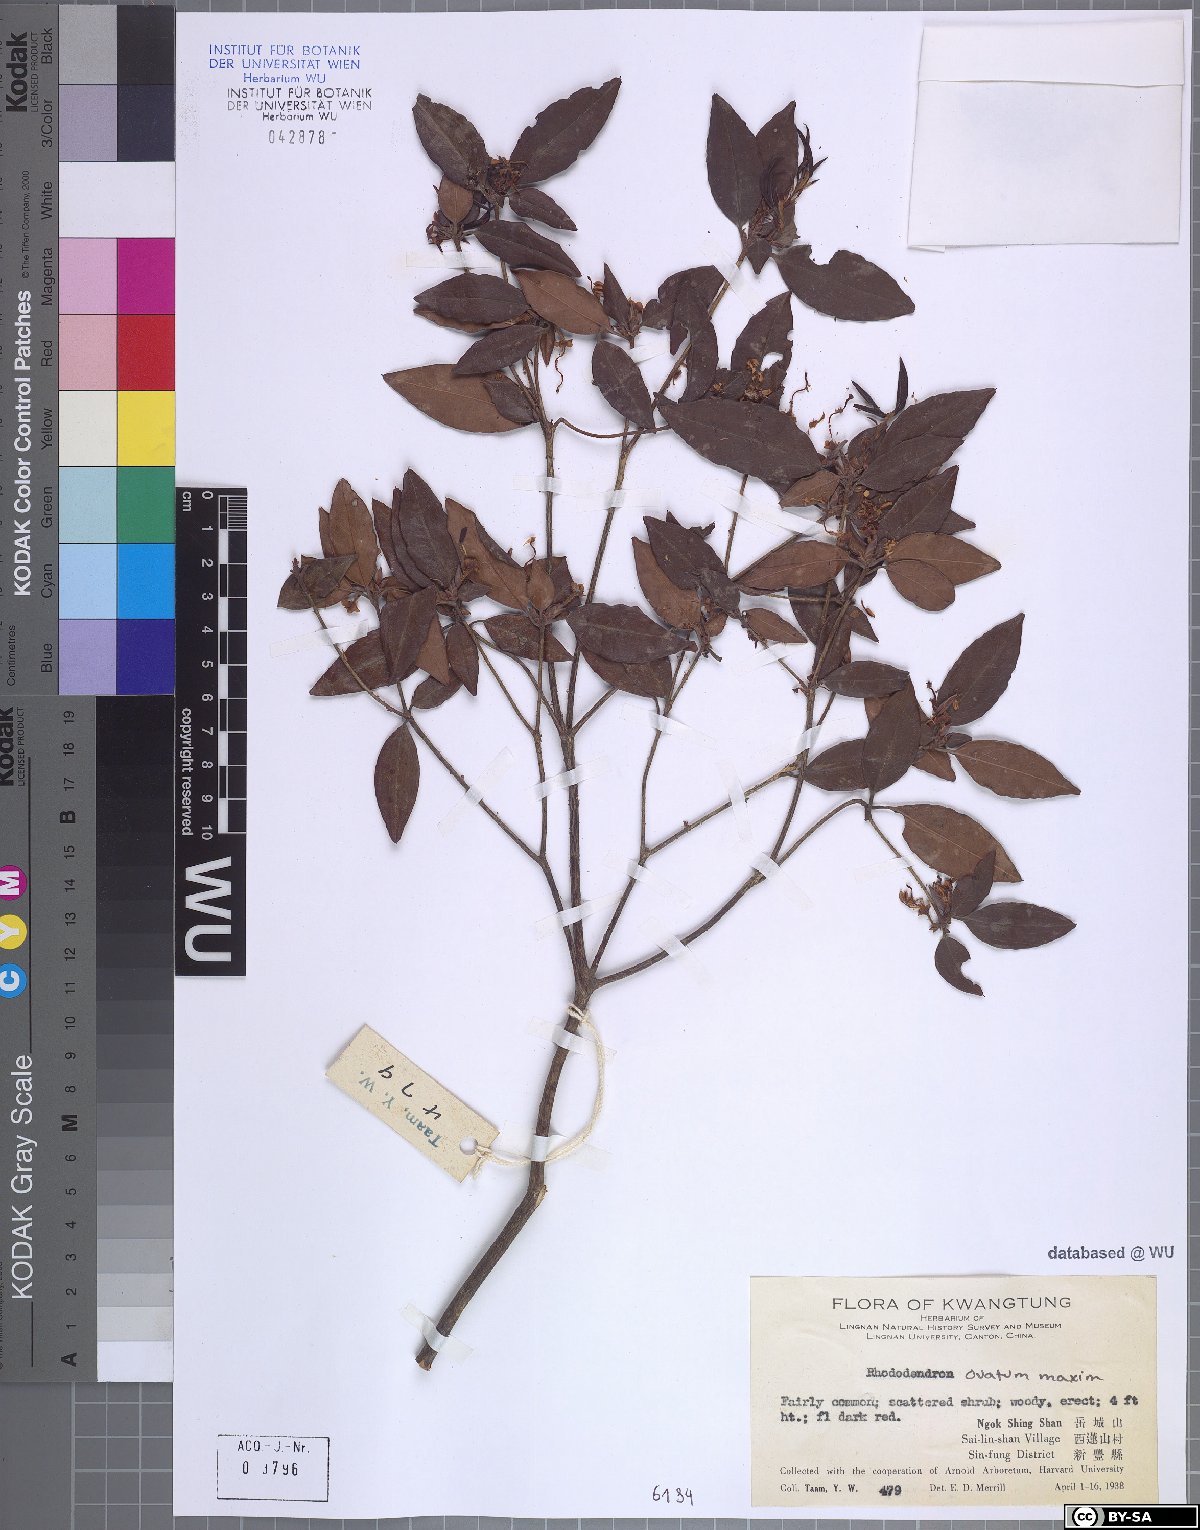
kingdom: Plantae
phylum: Tracheophyta
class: Magnoliopsida
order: Ericales
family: Ericaceae
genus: Rhododendron
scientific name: Rhododendron ovatum
